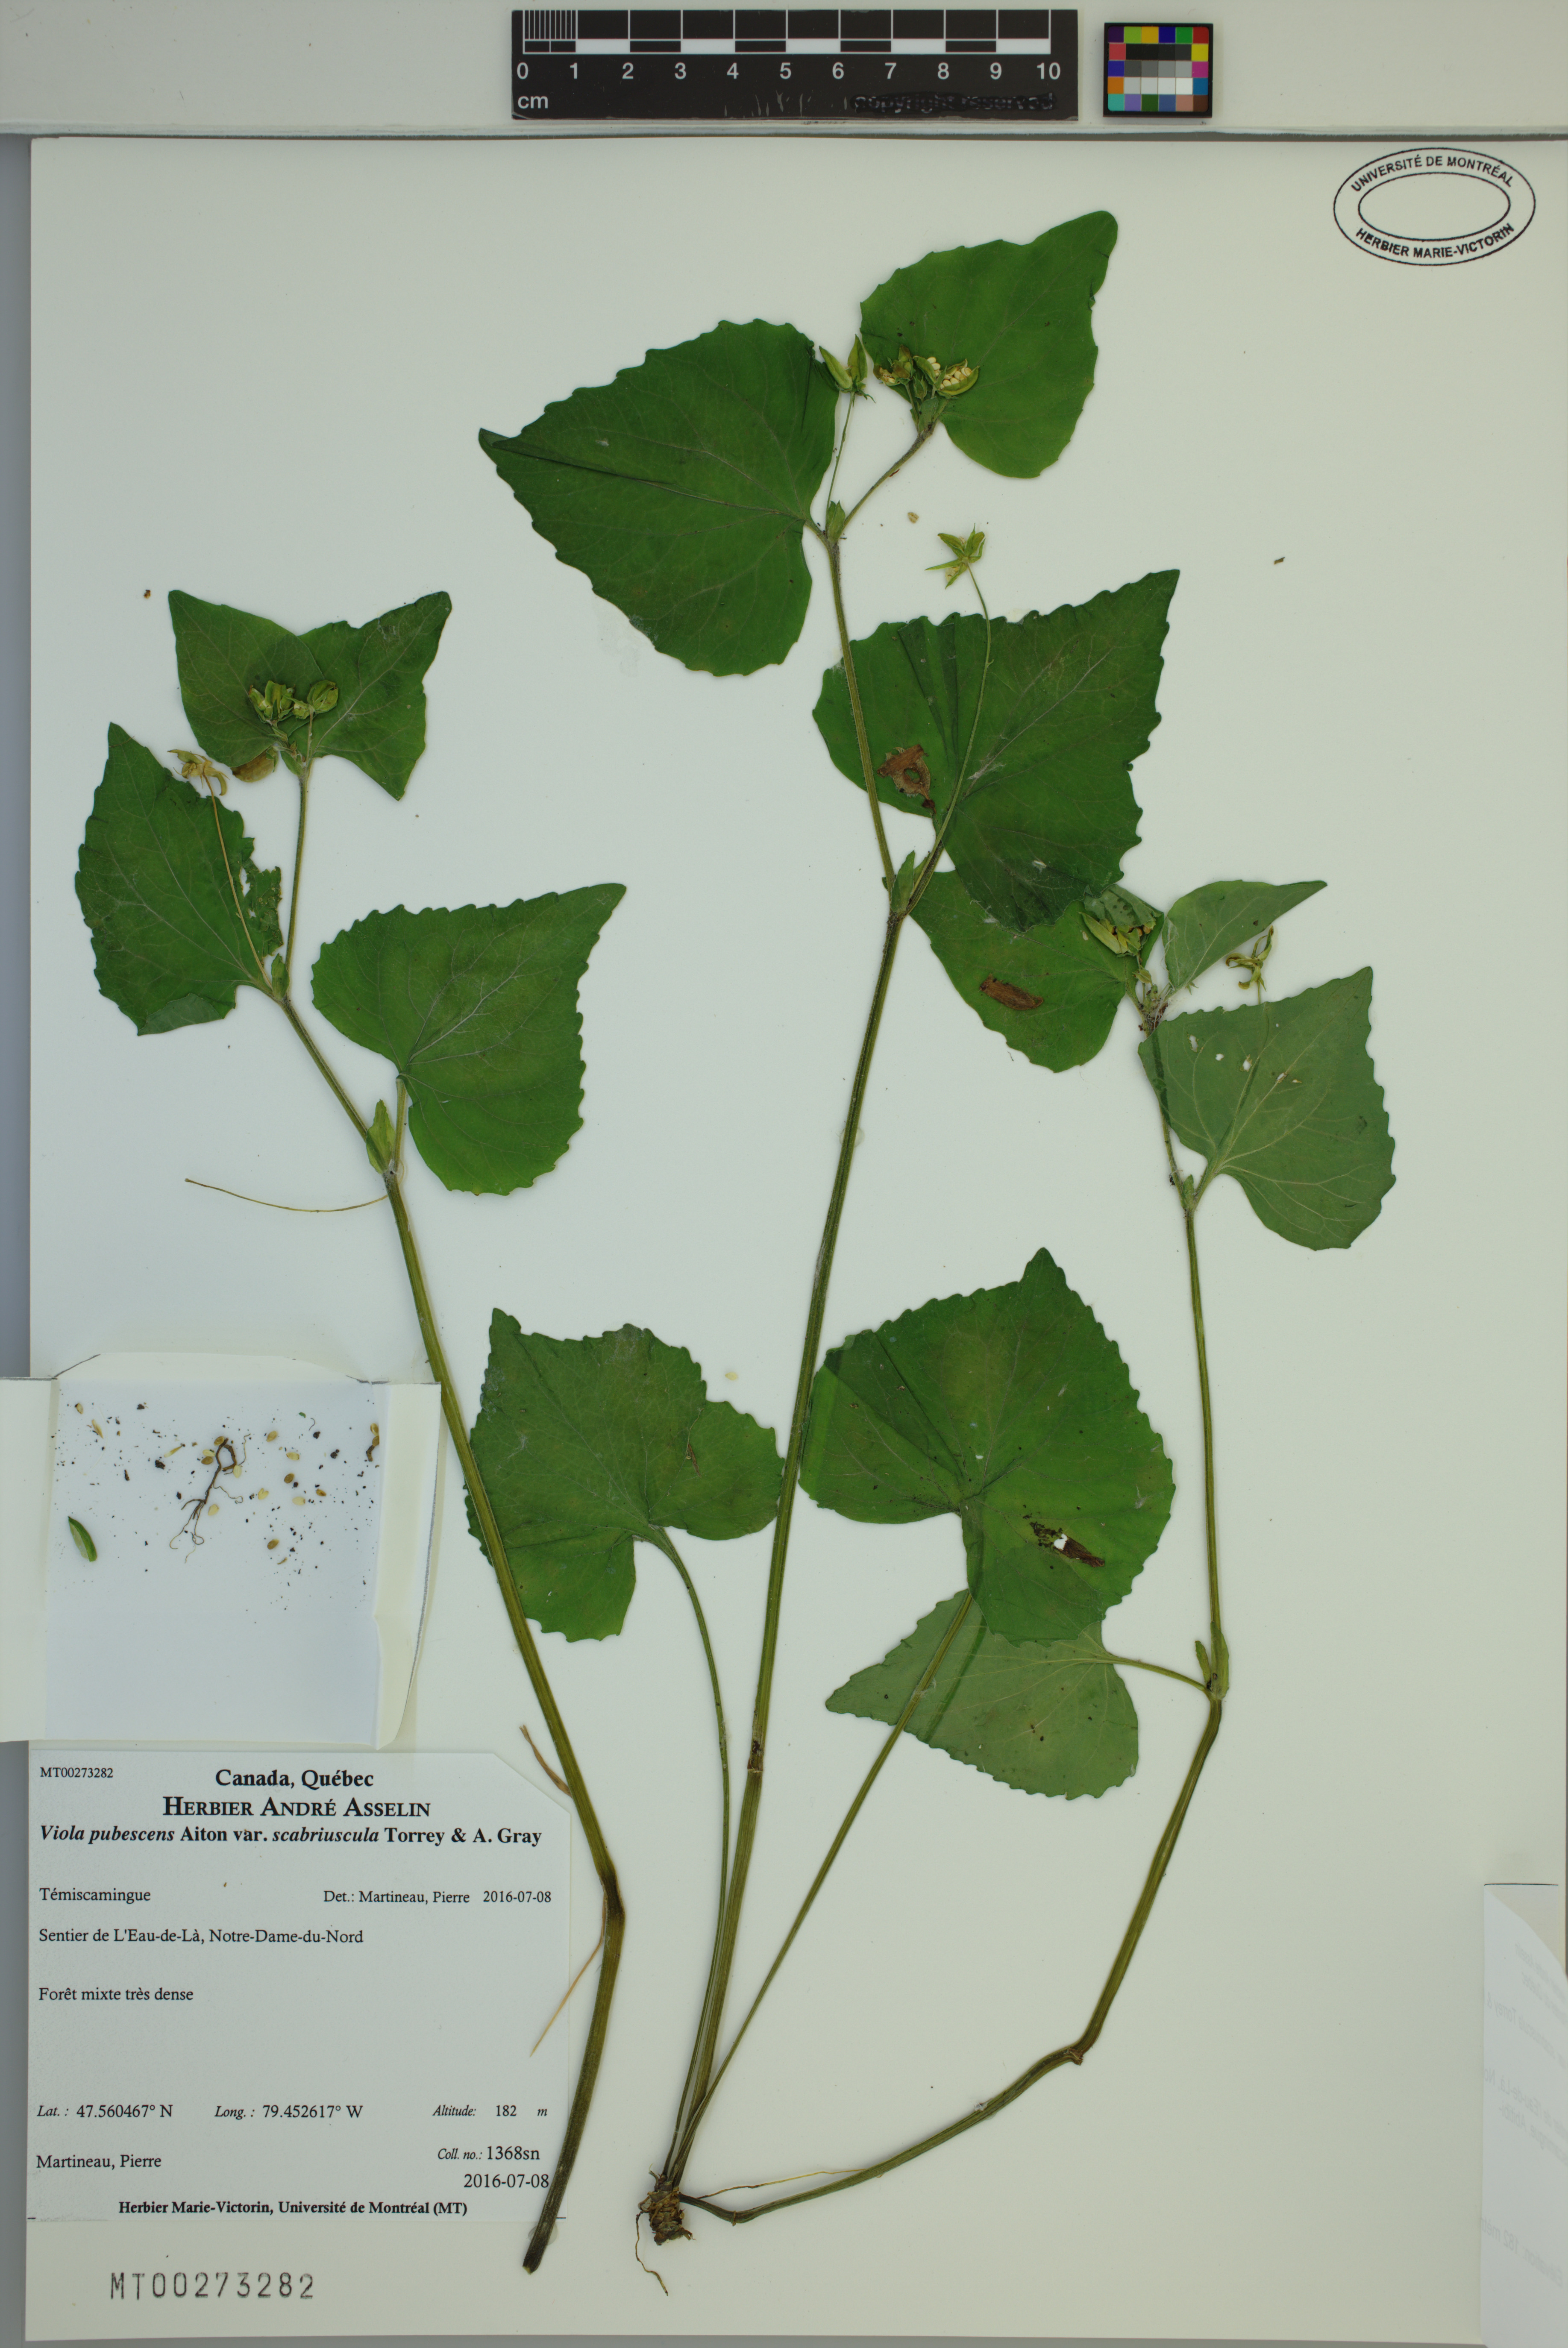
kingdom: Plantae
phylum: Tracheophyta
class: Magnoliopsida
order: Malpighiales
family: Violaceae
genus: Viola
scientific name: Viola eriocarpa
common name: Smooth yellow violet
